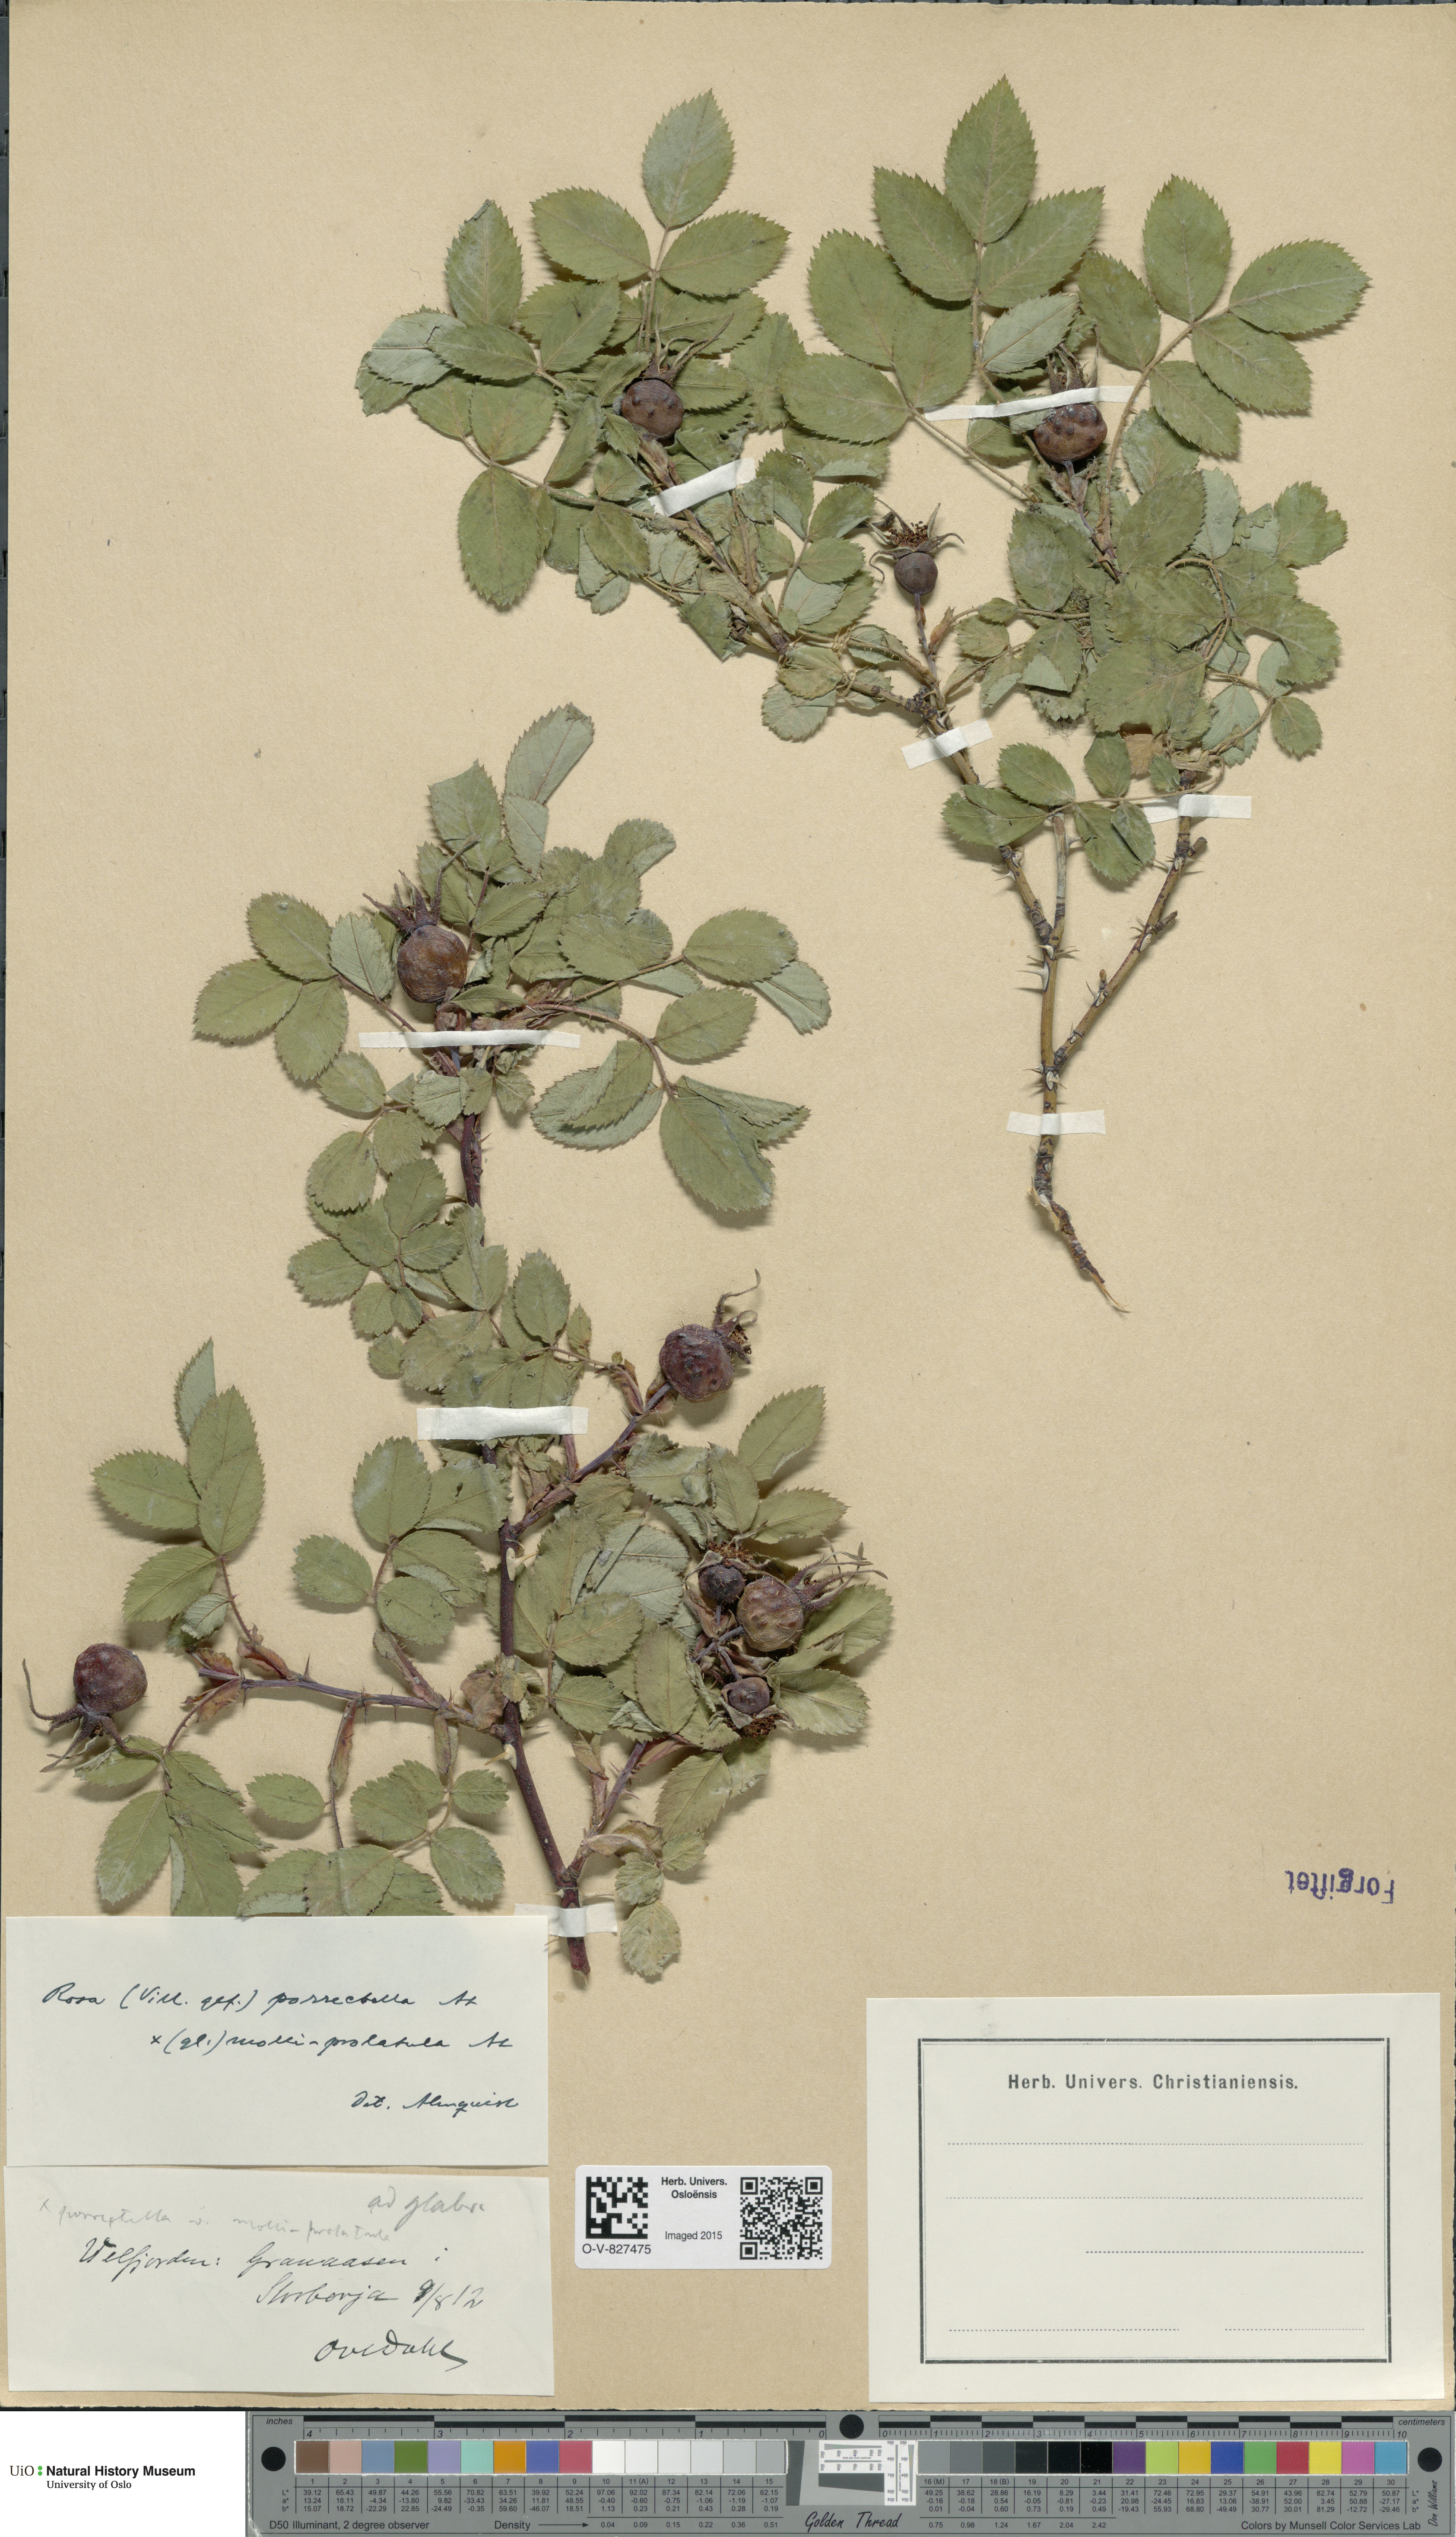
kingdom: Plantae
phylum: Tracheophyta
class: Magnoliopsida
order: Rosales
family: Rosaceae
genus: Rosa
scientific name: Rosa mollis
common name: Rose
